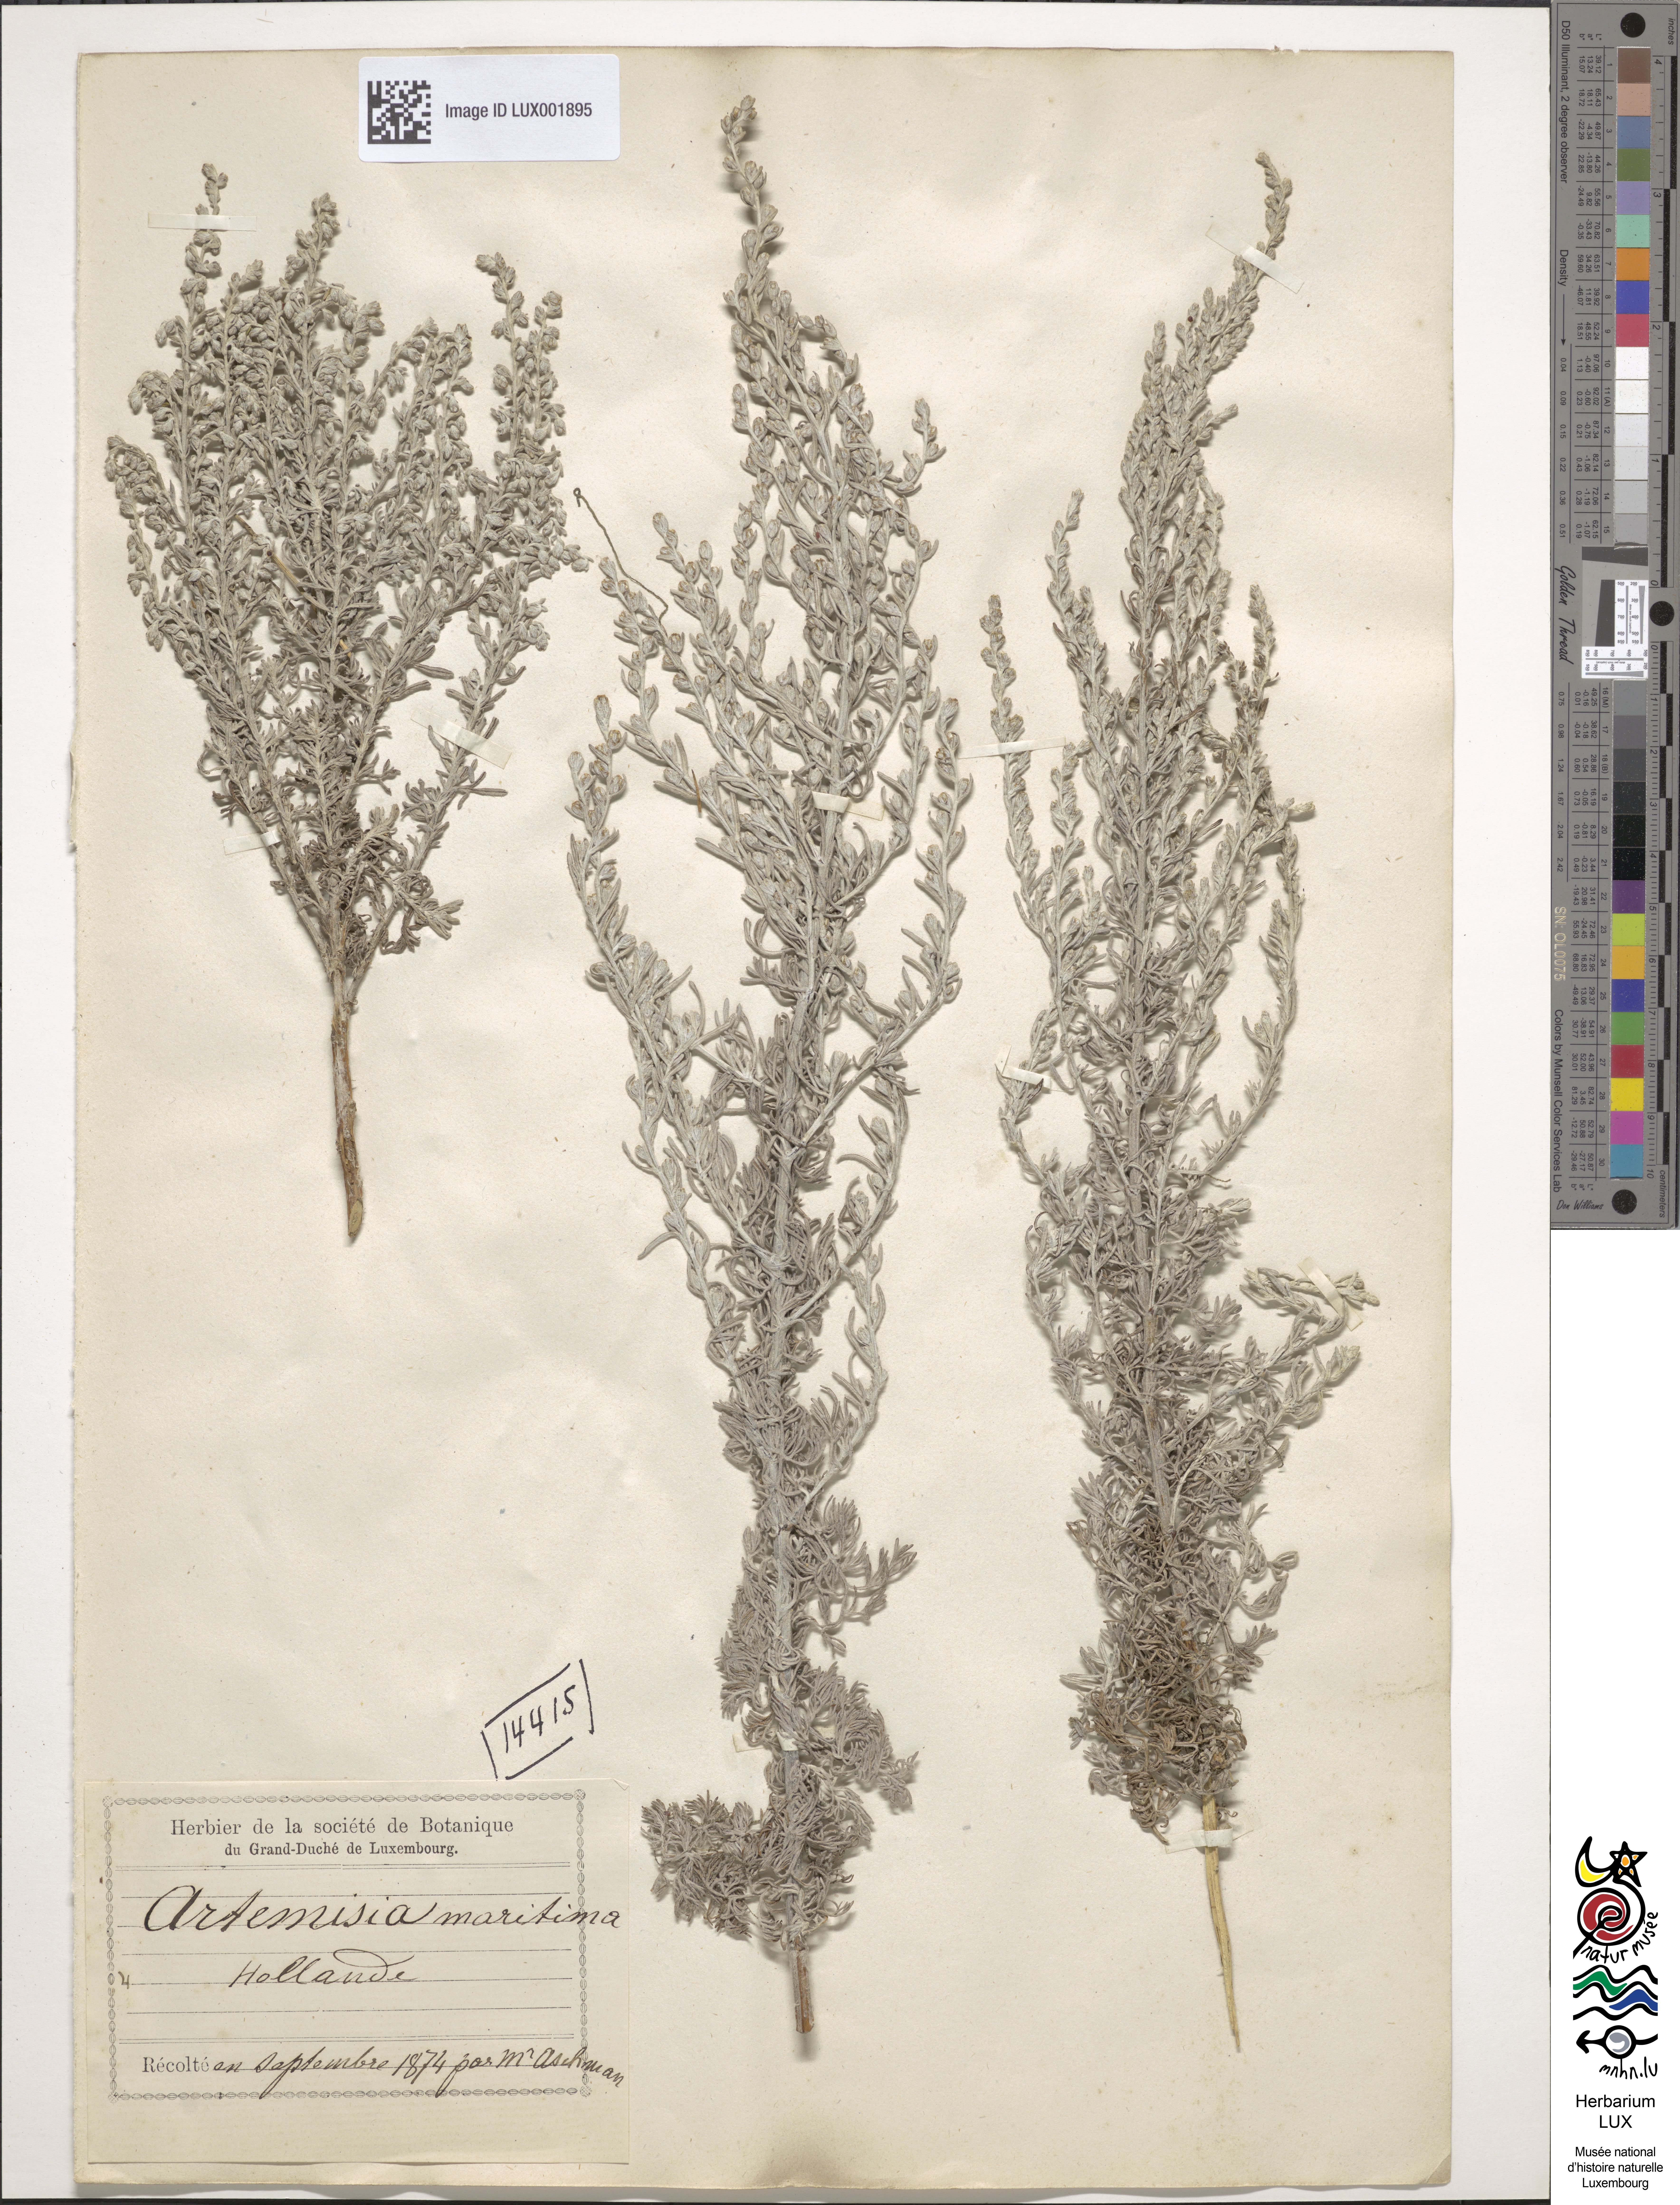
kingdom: Plantae
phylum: Tracheophyta
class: Magnoliopsida
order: Asterales
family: Asteraceae
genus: Artemisia
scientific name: Artemisia maritima
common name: Wormseed
